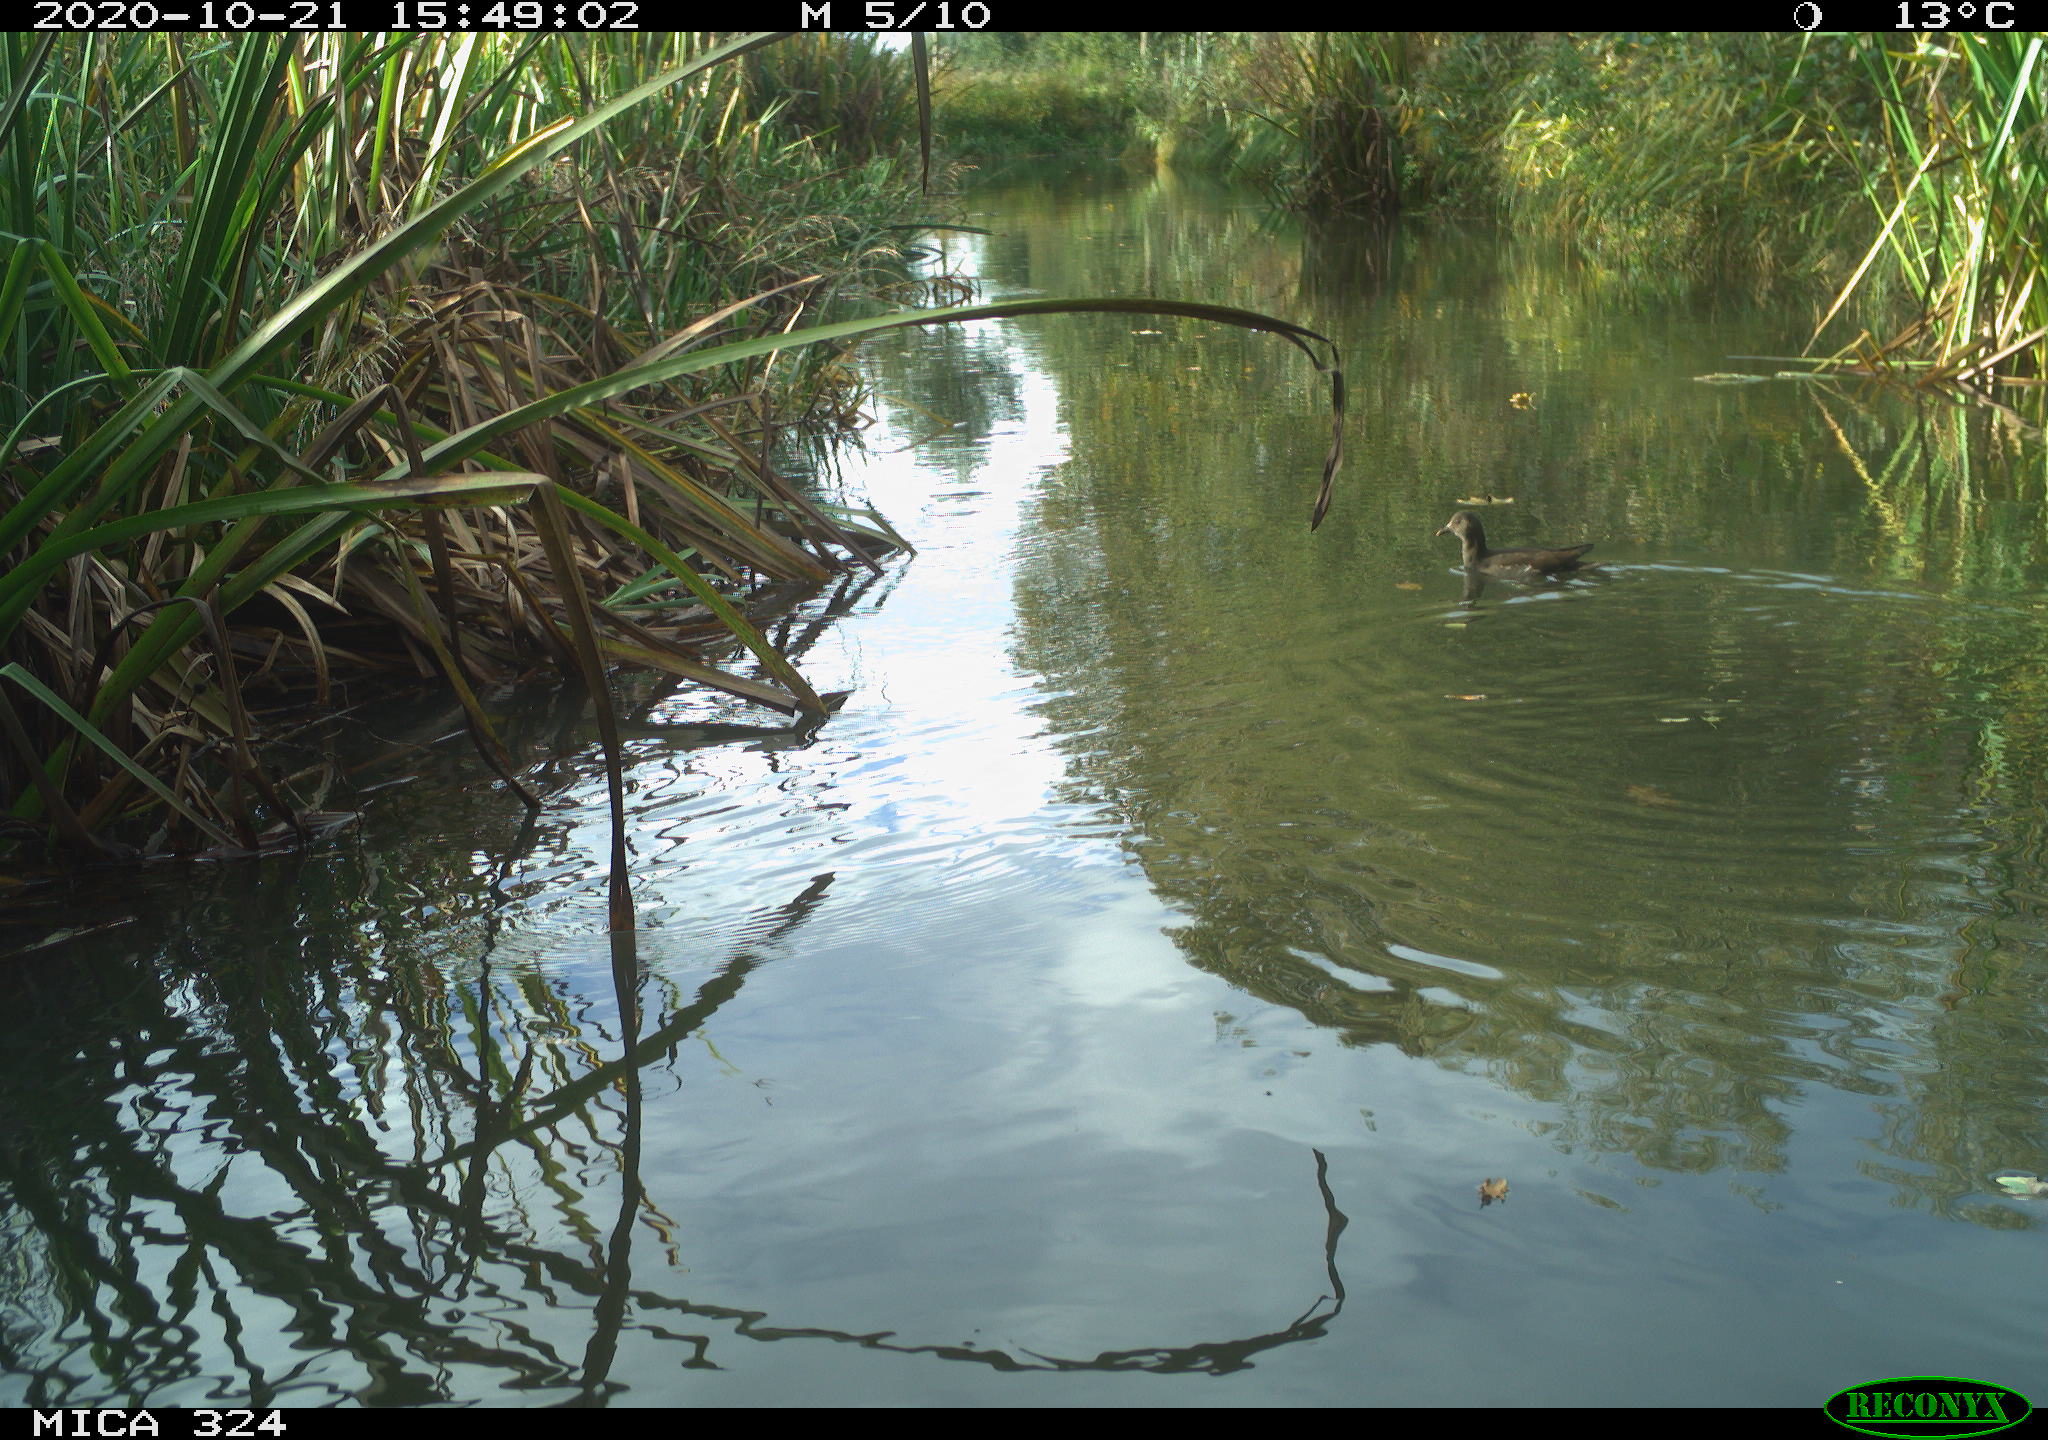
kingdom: Animalia
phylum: Chordata
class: Aves
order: Gruiformes
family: Rallidae
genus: Gallinula
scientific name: Gallinula chloropus
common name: Common moorhen
